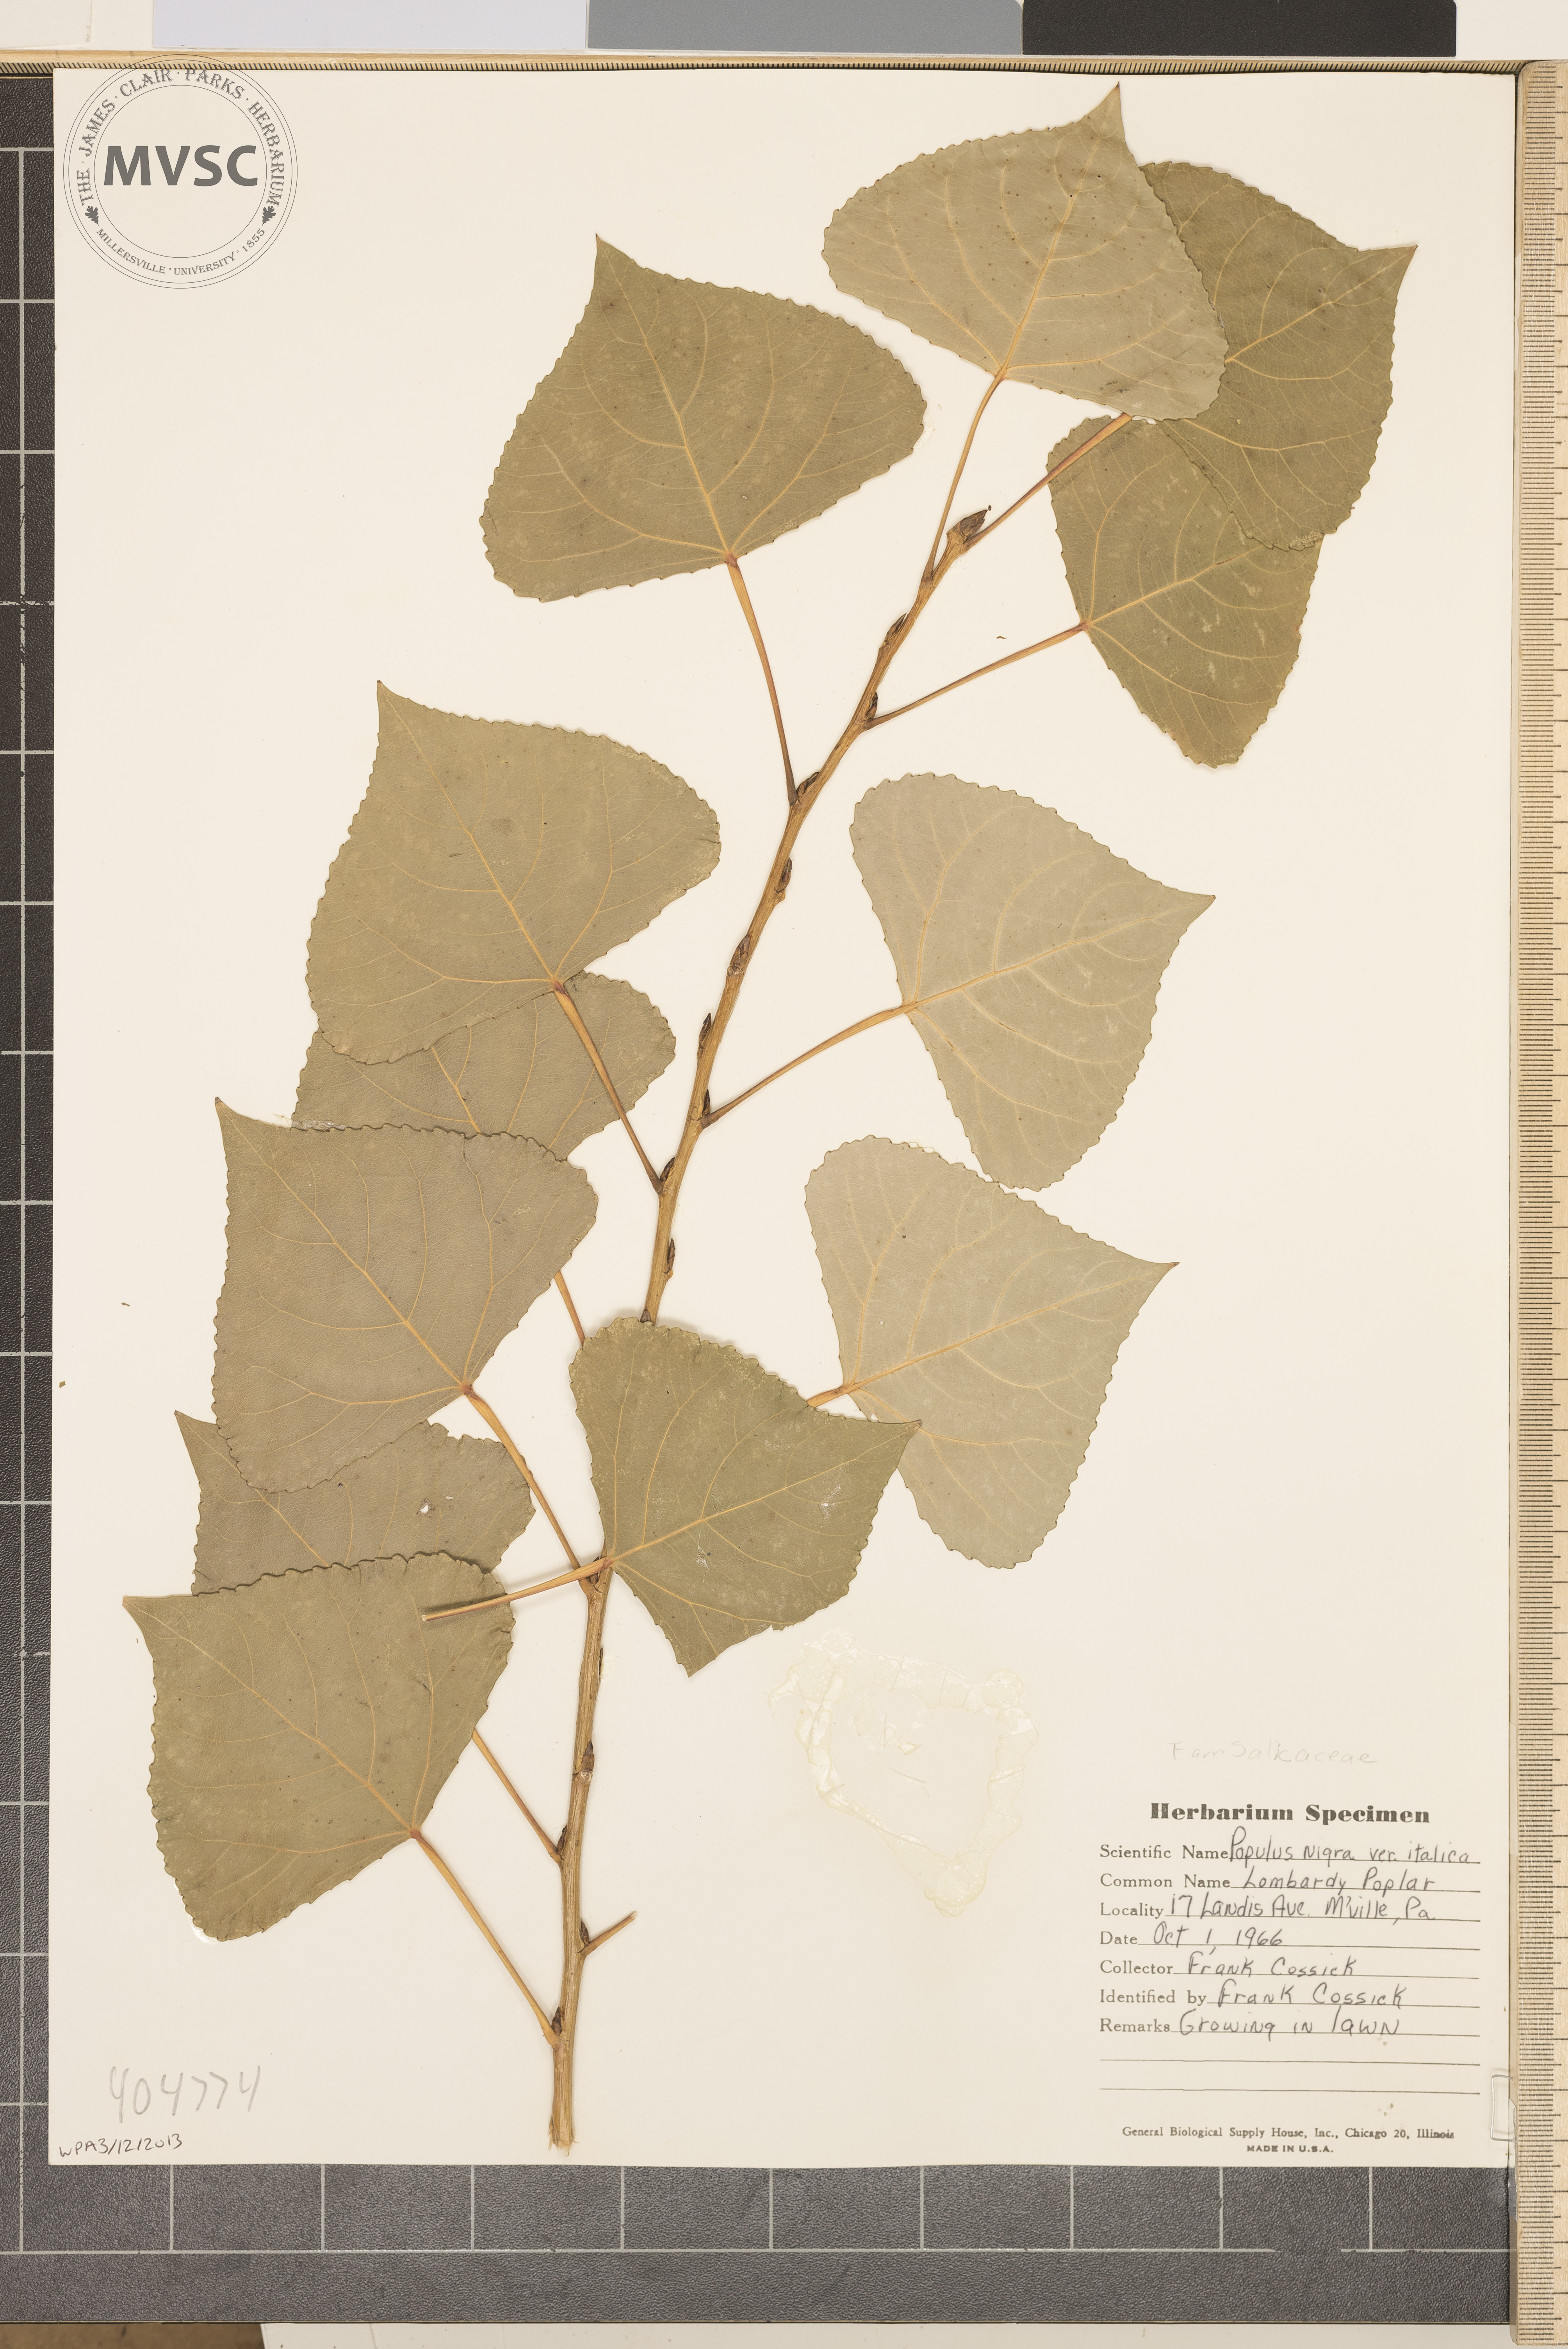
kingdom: Plantae
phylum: Tracheophyta
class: Magnoliopsida
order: Malpighiales
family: Salicaceae
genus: Populus
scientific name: Populus nigra
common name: Lombardy Poplar
